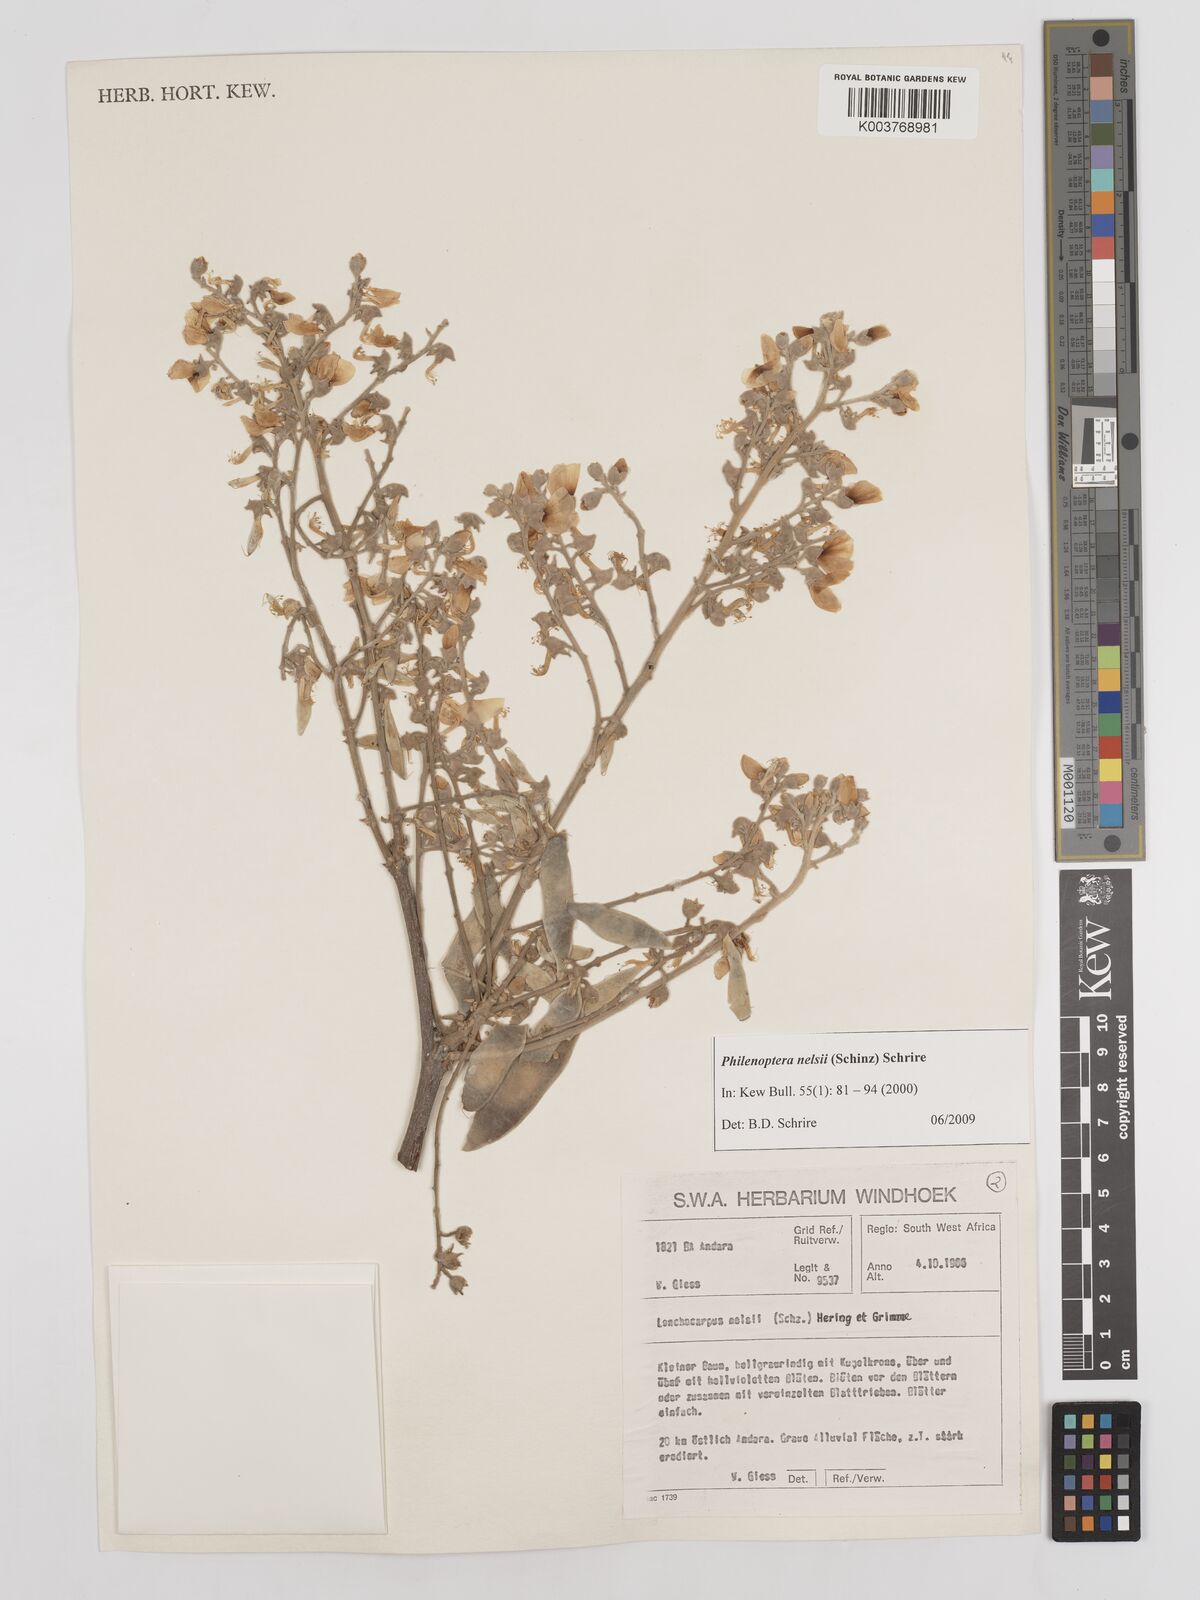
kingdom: Plantae
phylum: Tracheophyta
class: Magnoliopsida
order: Fabales
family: Fabaceae
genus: Philenoptera
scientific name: Philenoptera nelsii
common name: Kalahari apple-leaf
